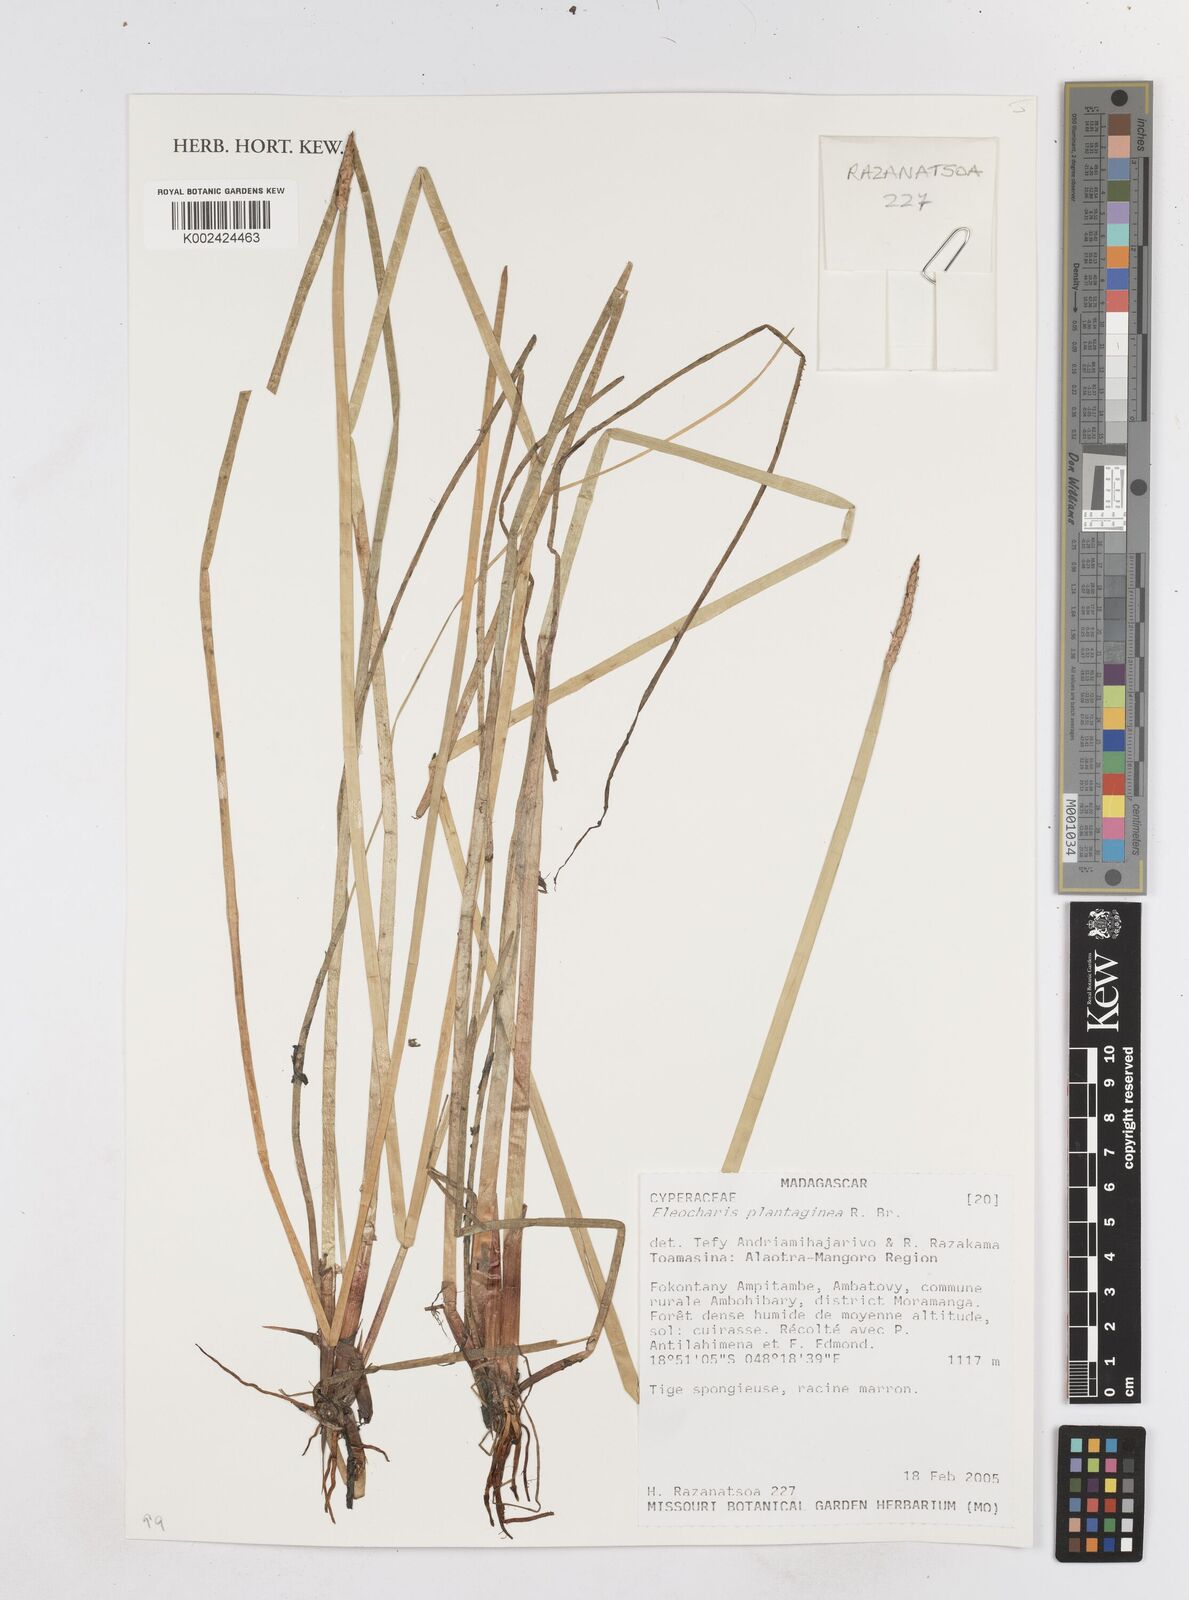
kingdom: Plantae
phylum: Tracheophyta
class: Liliopsida
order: Poales
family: Cyperaceae
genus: Eleocharis
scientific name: Eleocharis dulcis
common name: Chinese water chestnut
